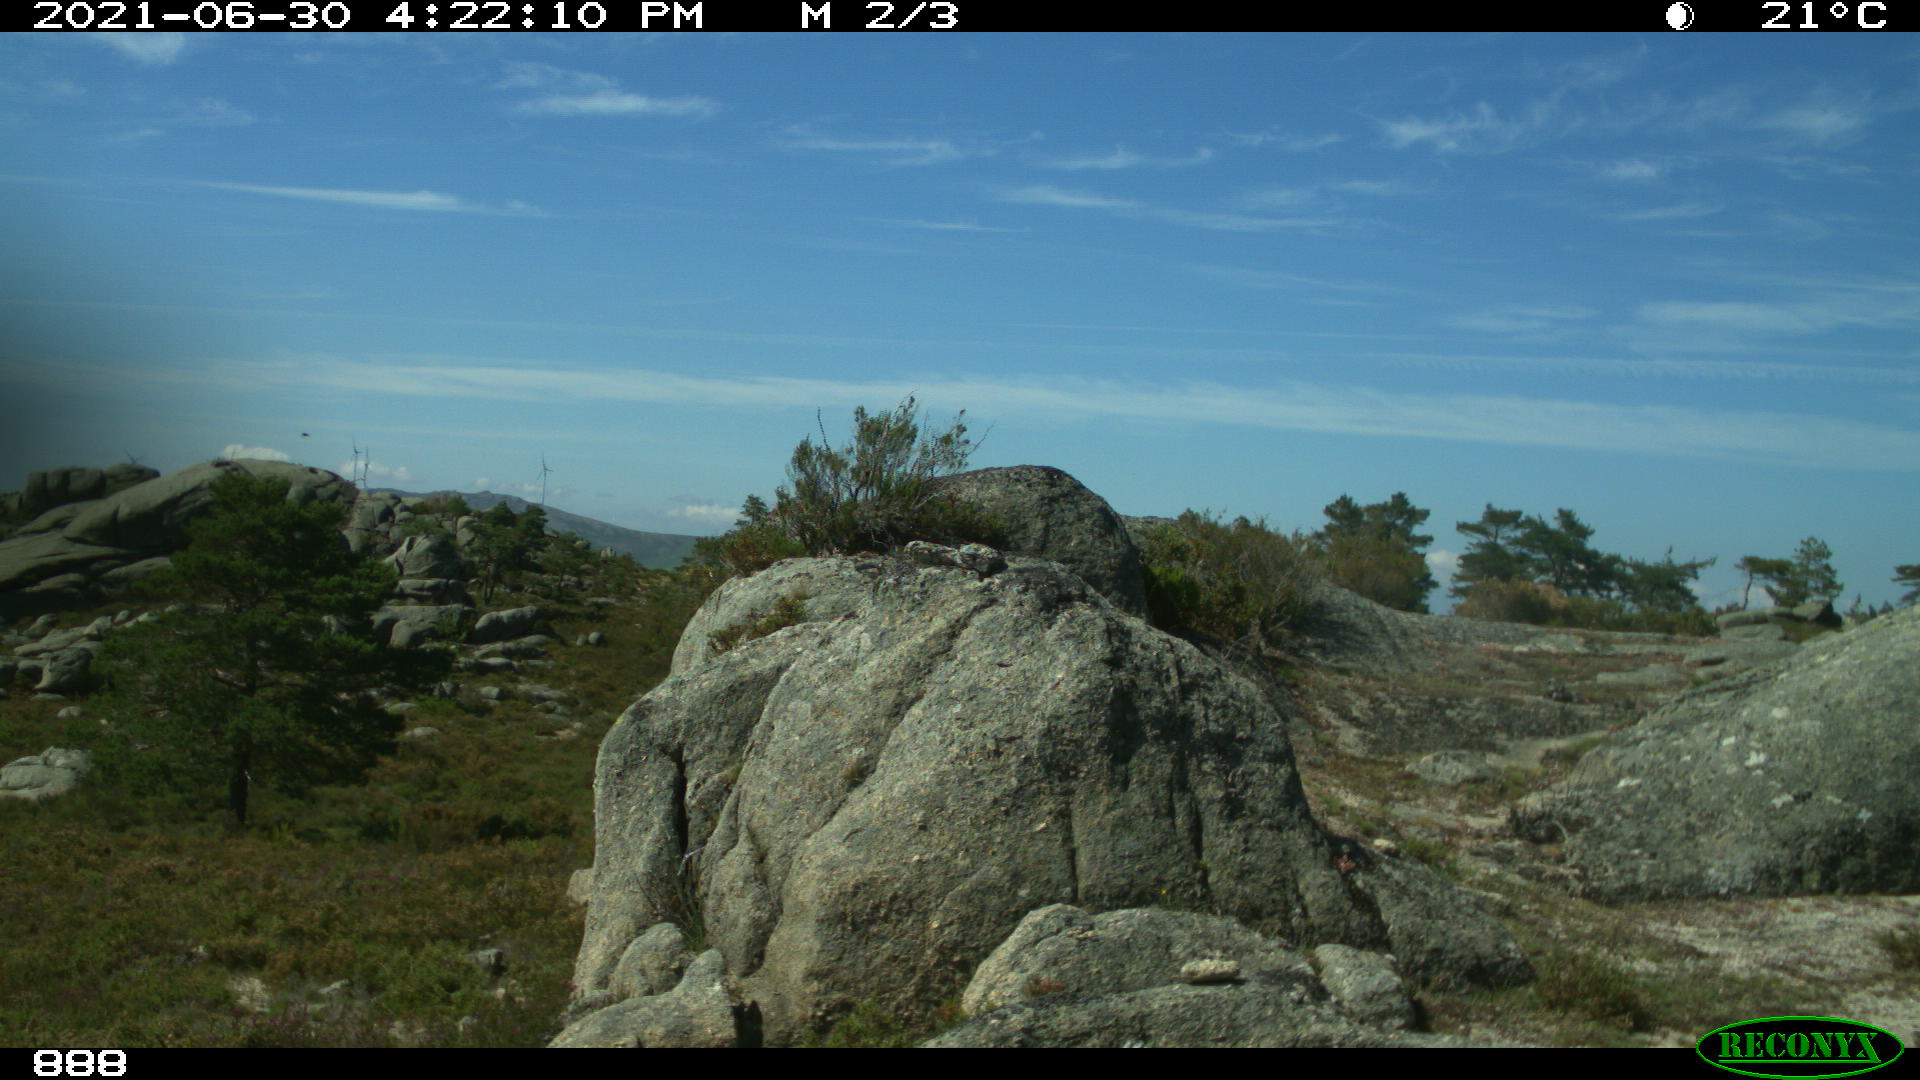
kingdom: Animalia
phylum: Chordata
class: Mammalia
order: Artiodactyla
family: Bovidae
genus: Bos
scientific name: Bos taurus
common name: Domesticated cattle
